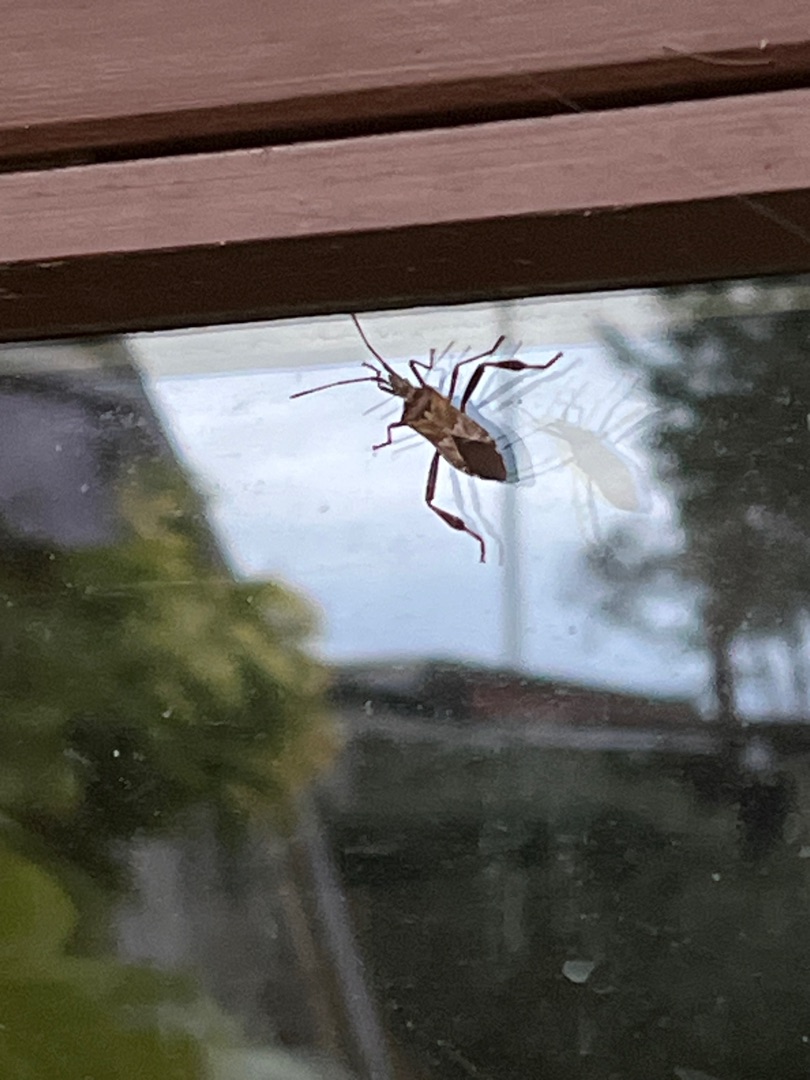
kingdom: Animalia
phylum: Arthropoda
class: Insecta
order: Hemiptera
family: Coreidae
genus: Leptoglossus
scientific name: Leptoglossus occidentalis
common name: Amerikansk fyrretæge
